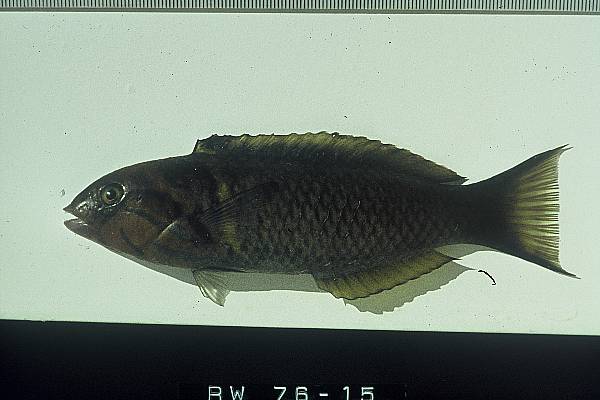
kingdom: Animalia
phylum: Chordata
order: Perciformes
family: Labridae
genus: Thalassoma
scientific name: Thalassoma hebraicum
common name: Goldbar wrasse
